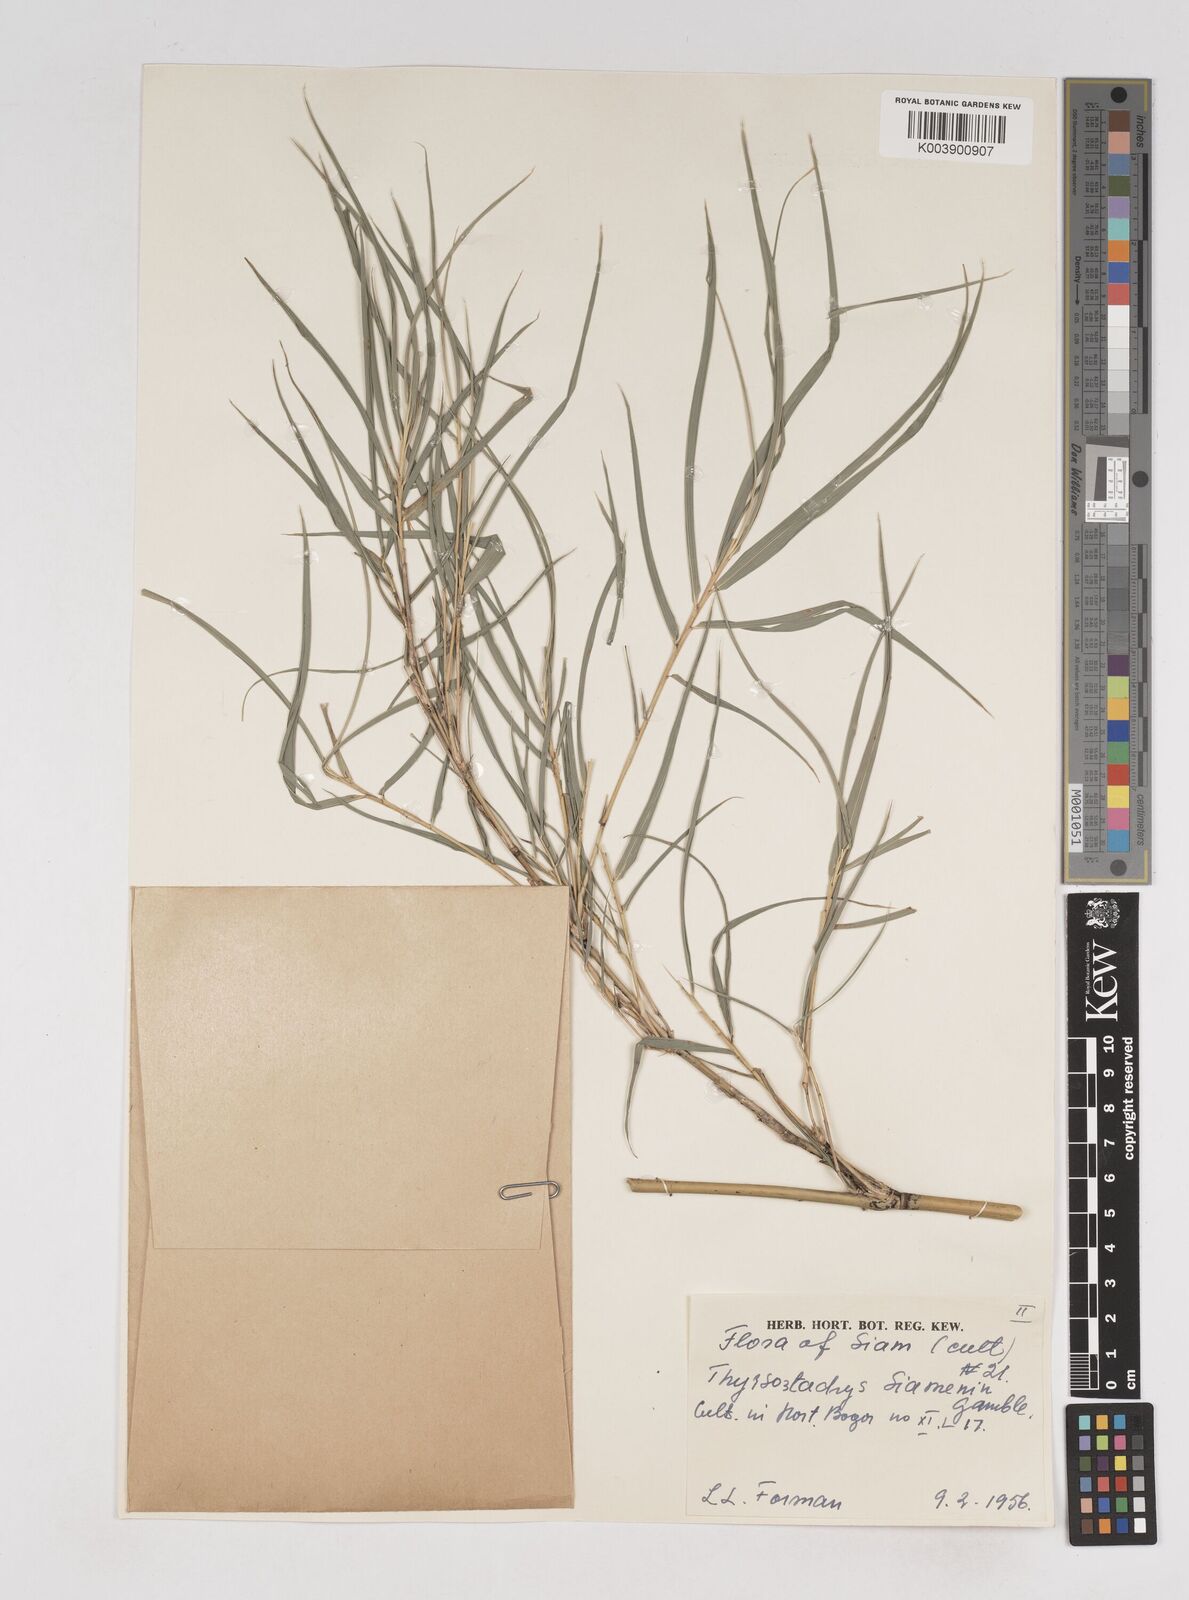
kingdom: Plantae
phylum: Tracheophyta
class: Liliopsida
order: Poales
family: Poaceae
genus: Thyrsostachys
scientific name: Thyrsostachys siamensis
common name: Thailand bamboo
